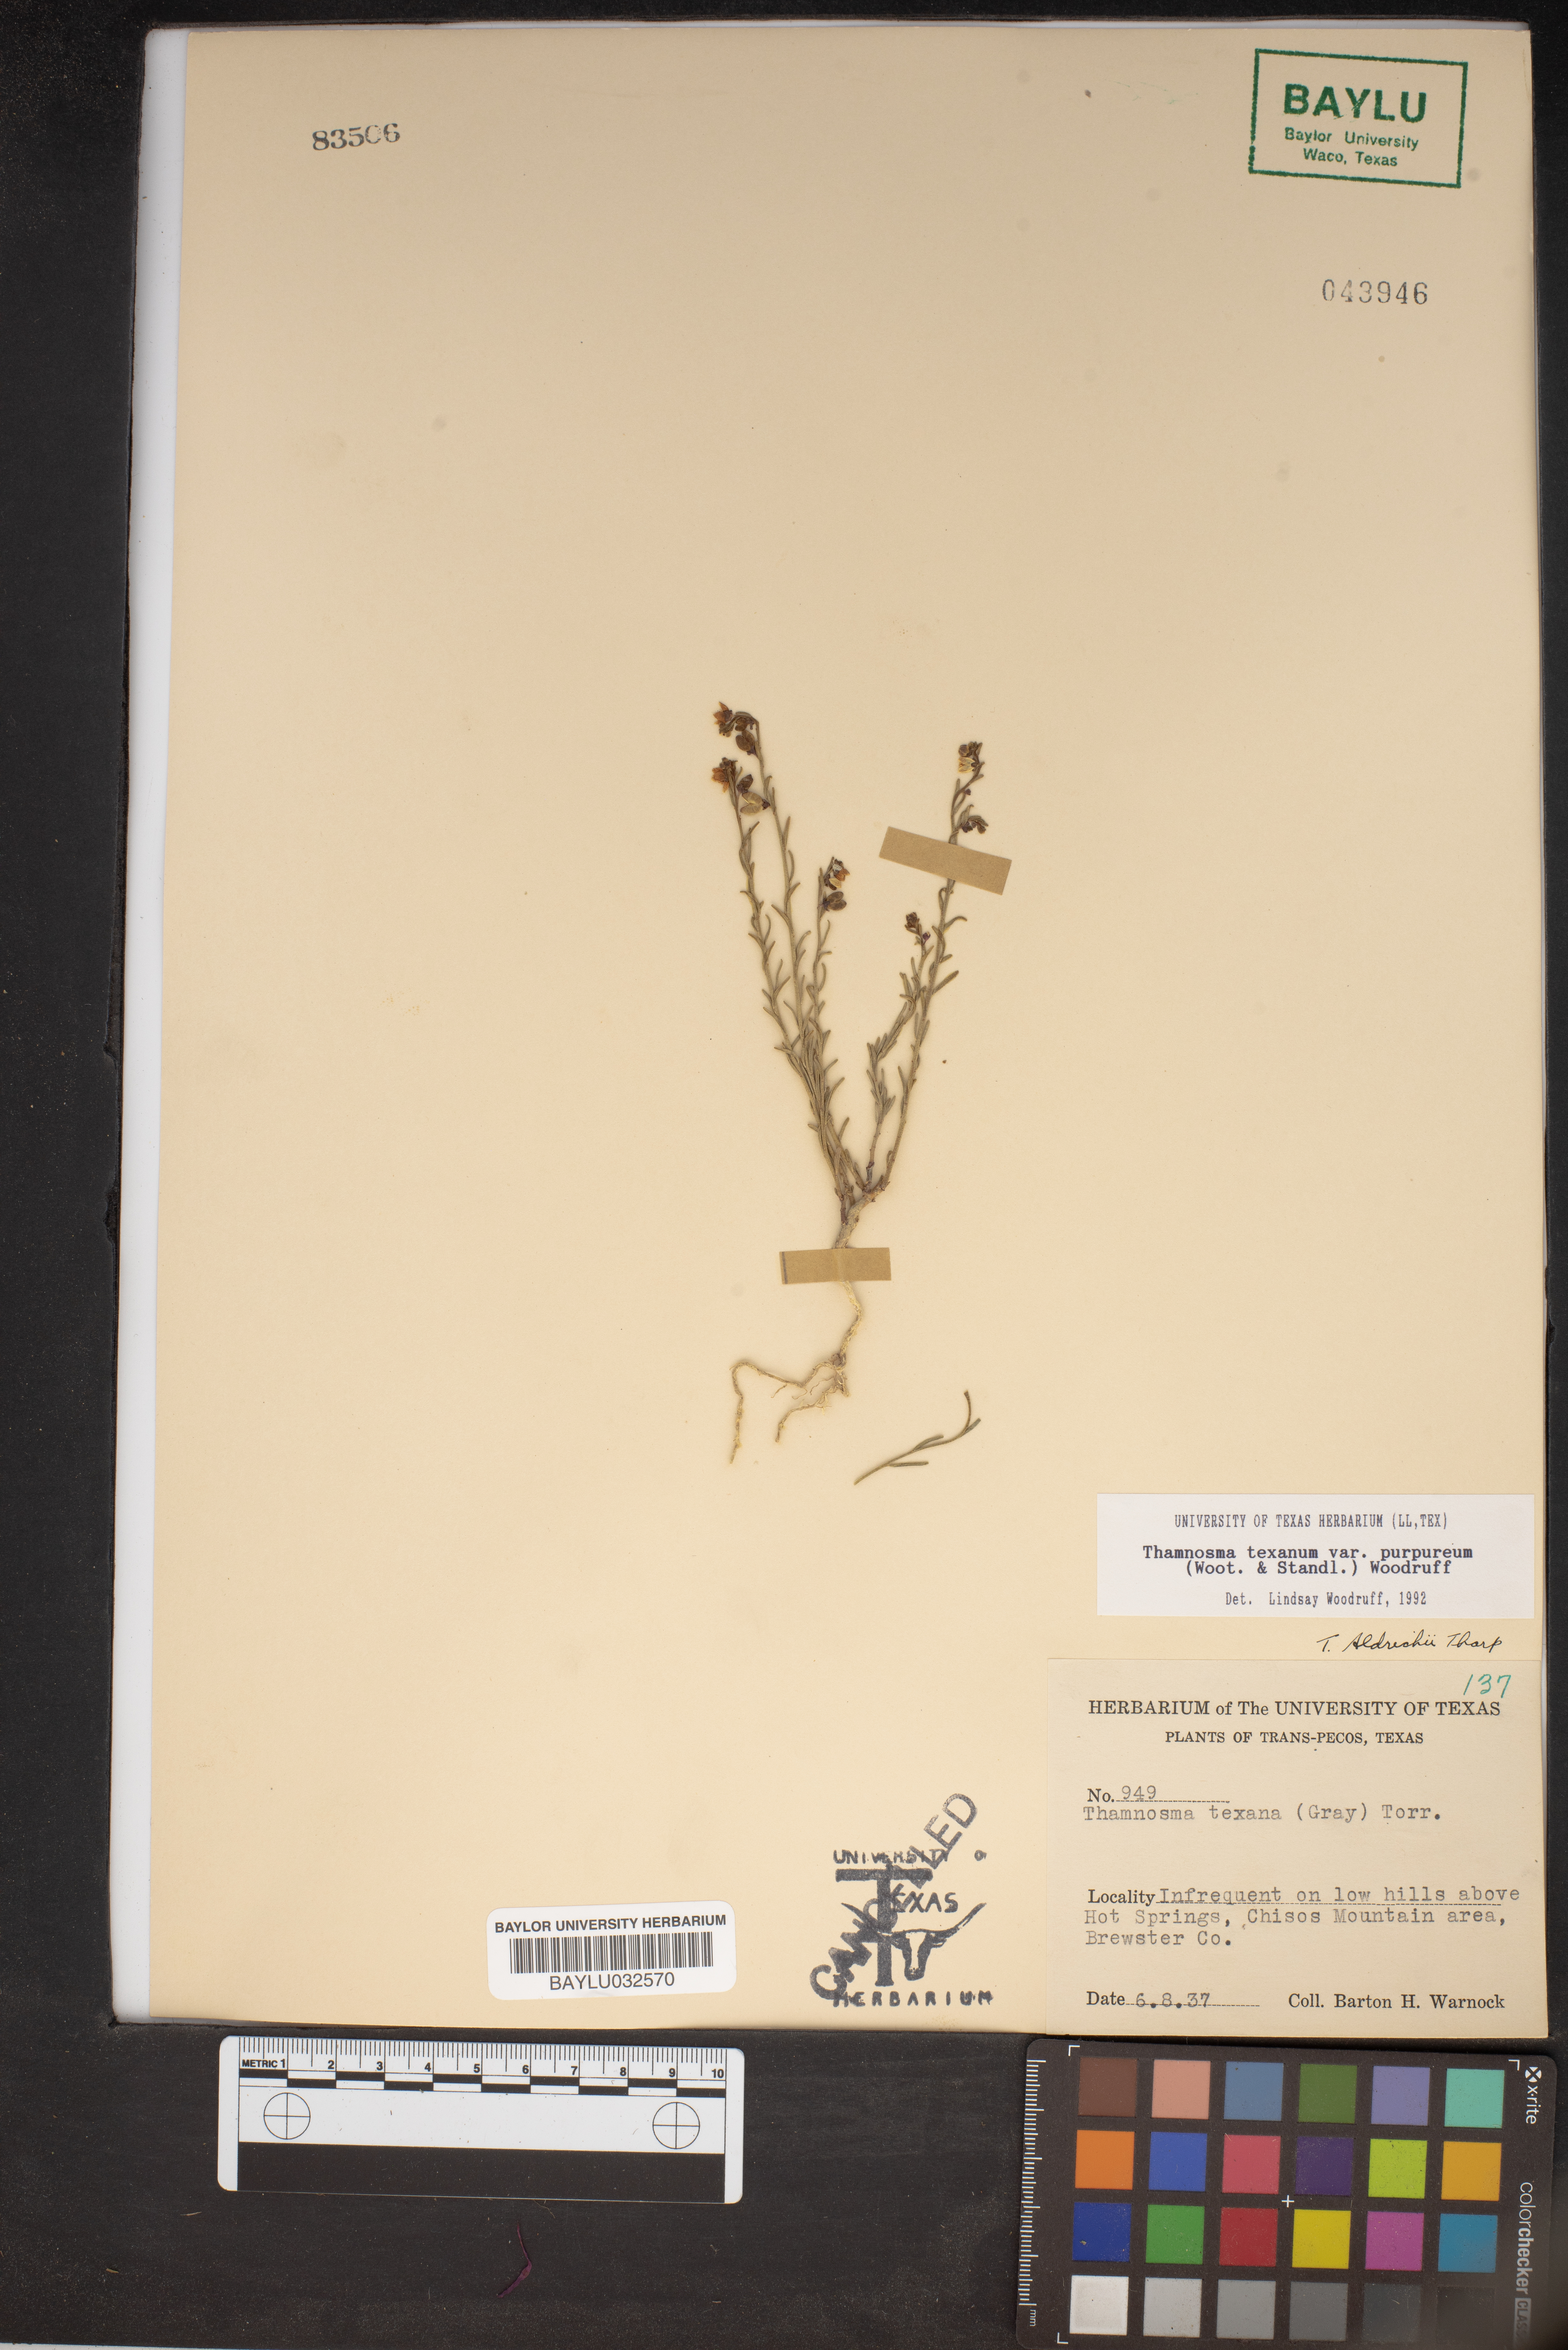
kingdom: Plantae
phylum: Tracheophyta
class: Magnoliopsida
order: Sapindales
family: Rutaceae
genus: Thamnosma
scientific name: Thamnosma texana
